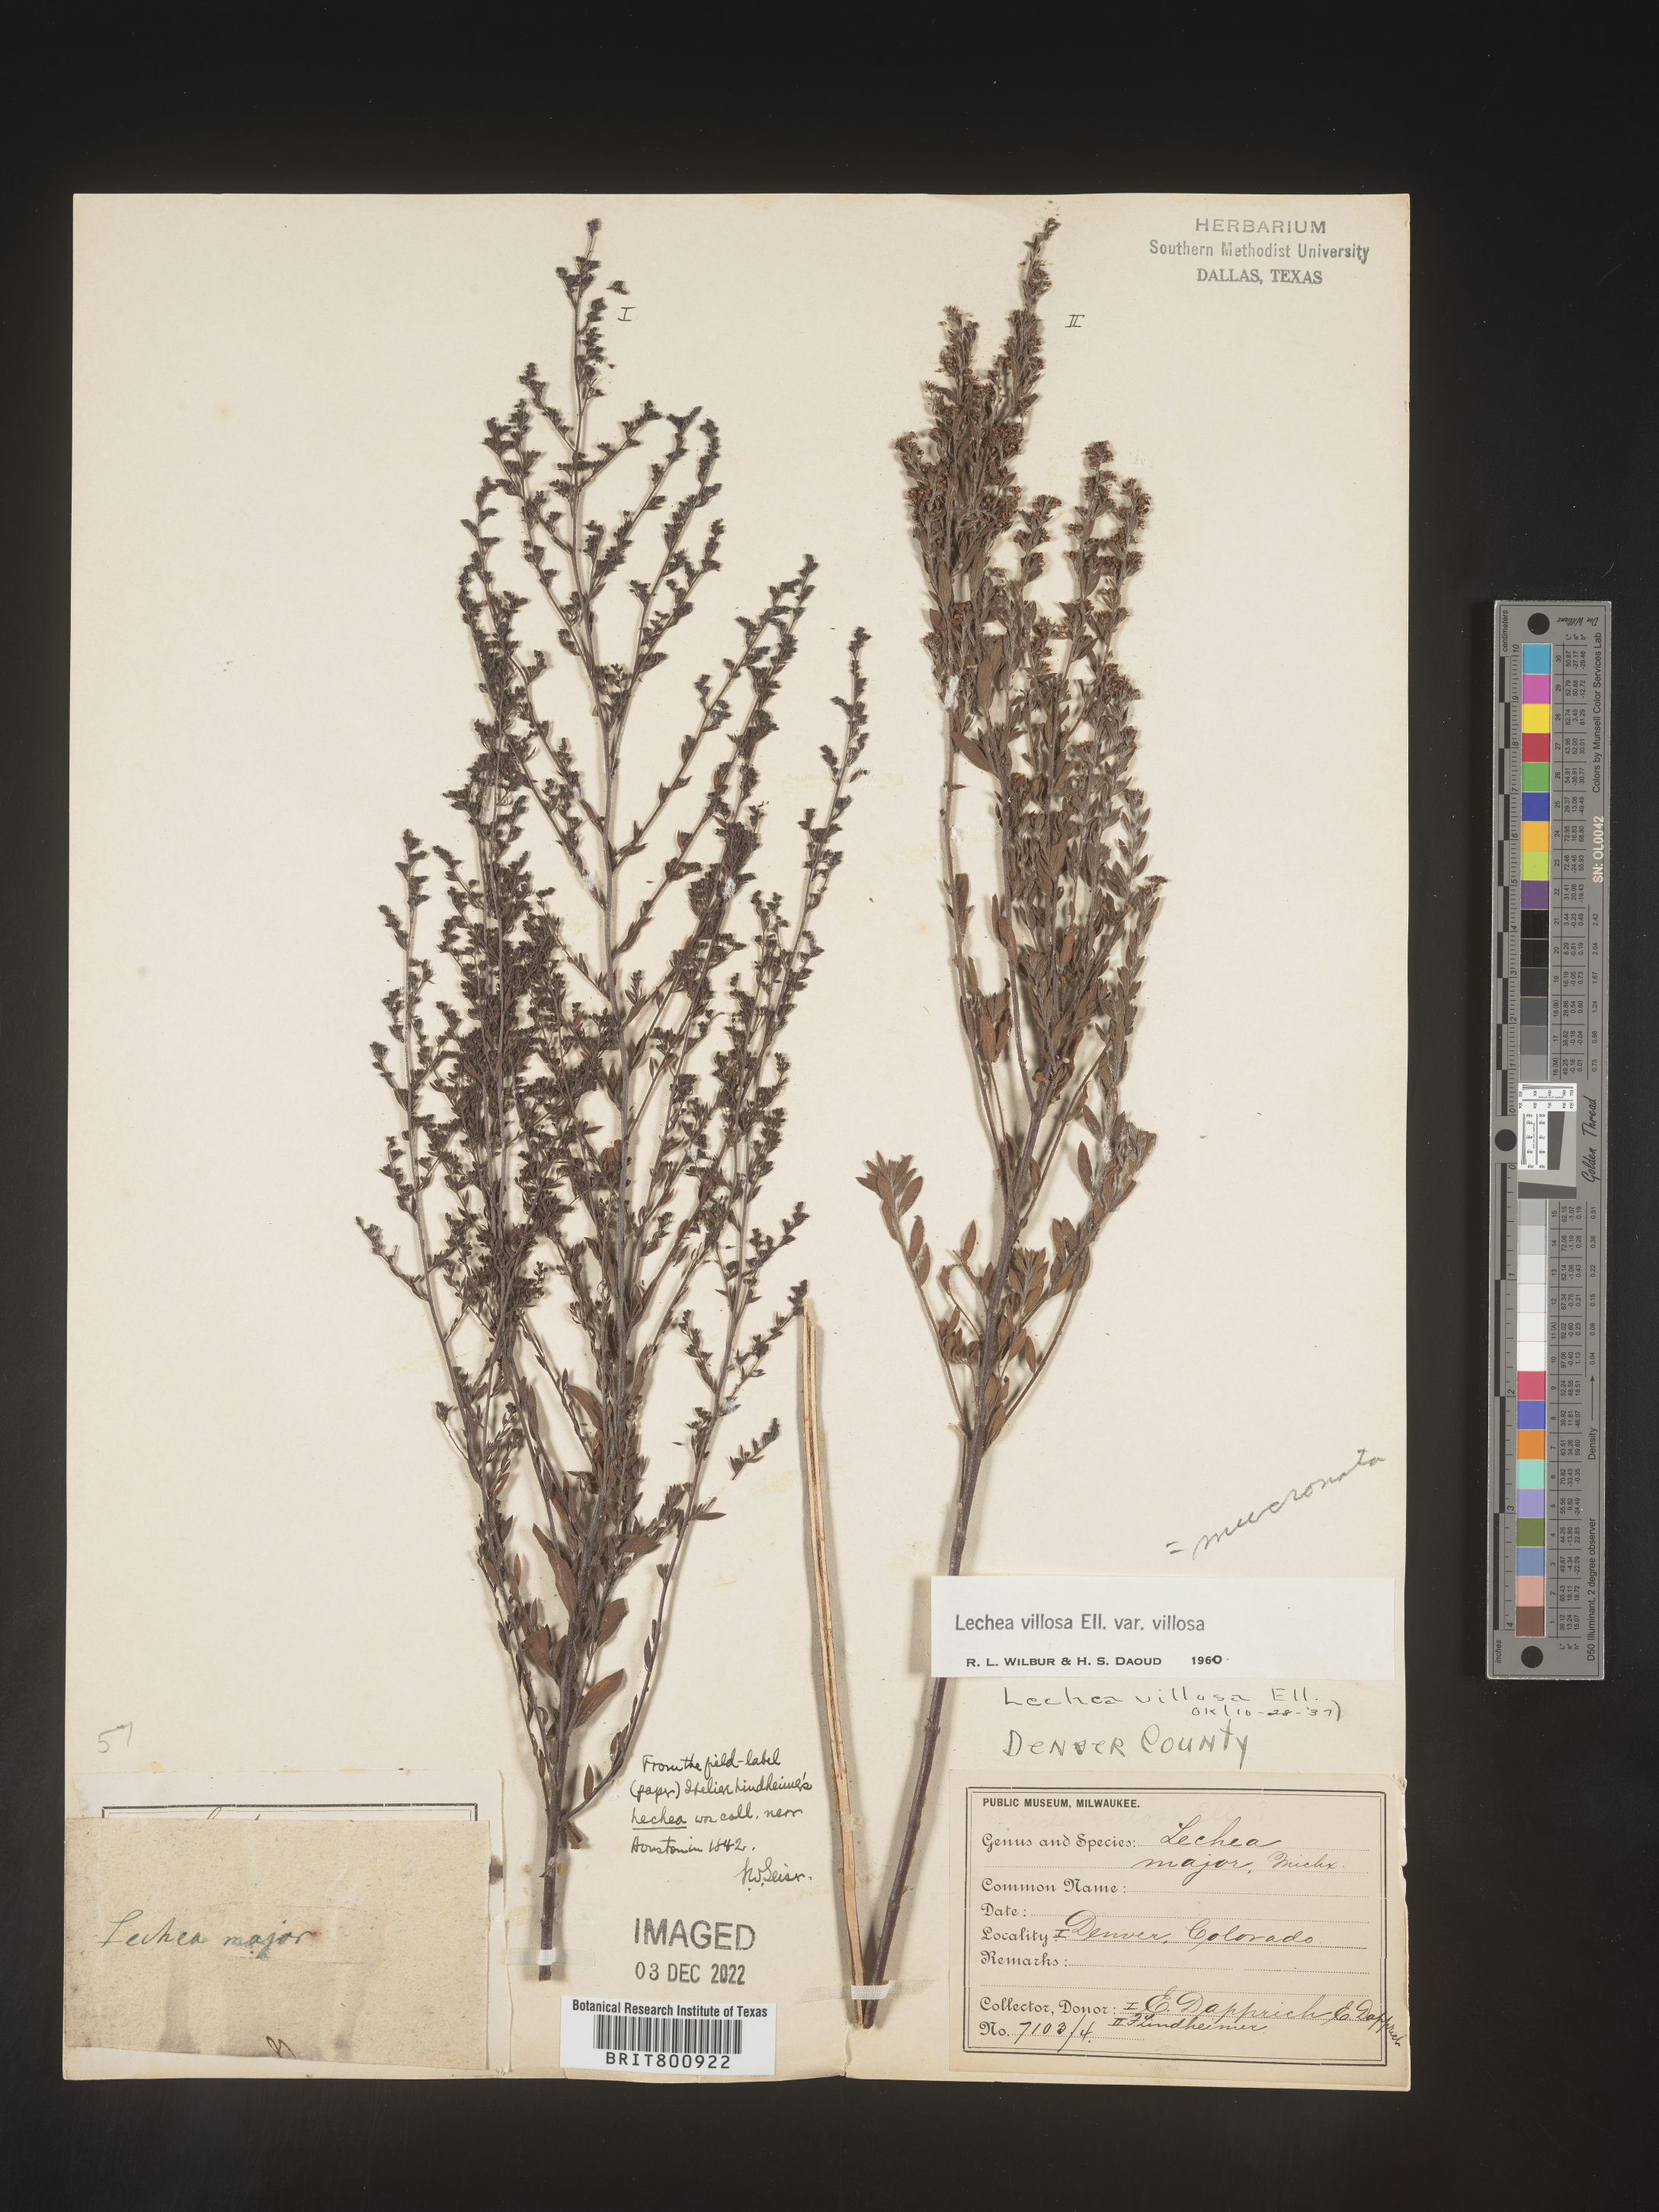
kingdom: Plantae
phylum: Tracheophyta
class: Magnoliopsida
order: Malvales
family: Cistaceae
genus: Lechea
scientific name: Lechea mucronata
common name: Hairy pinweed
